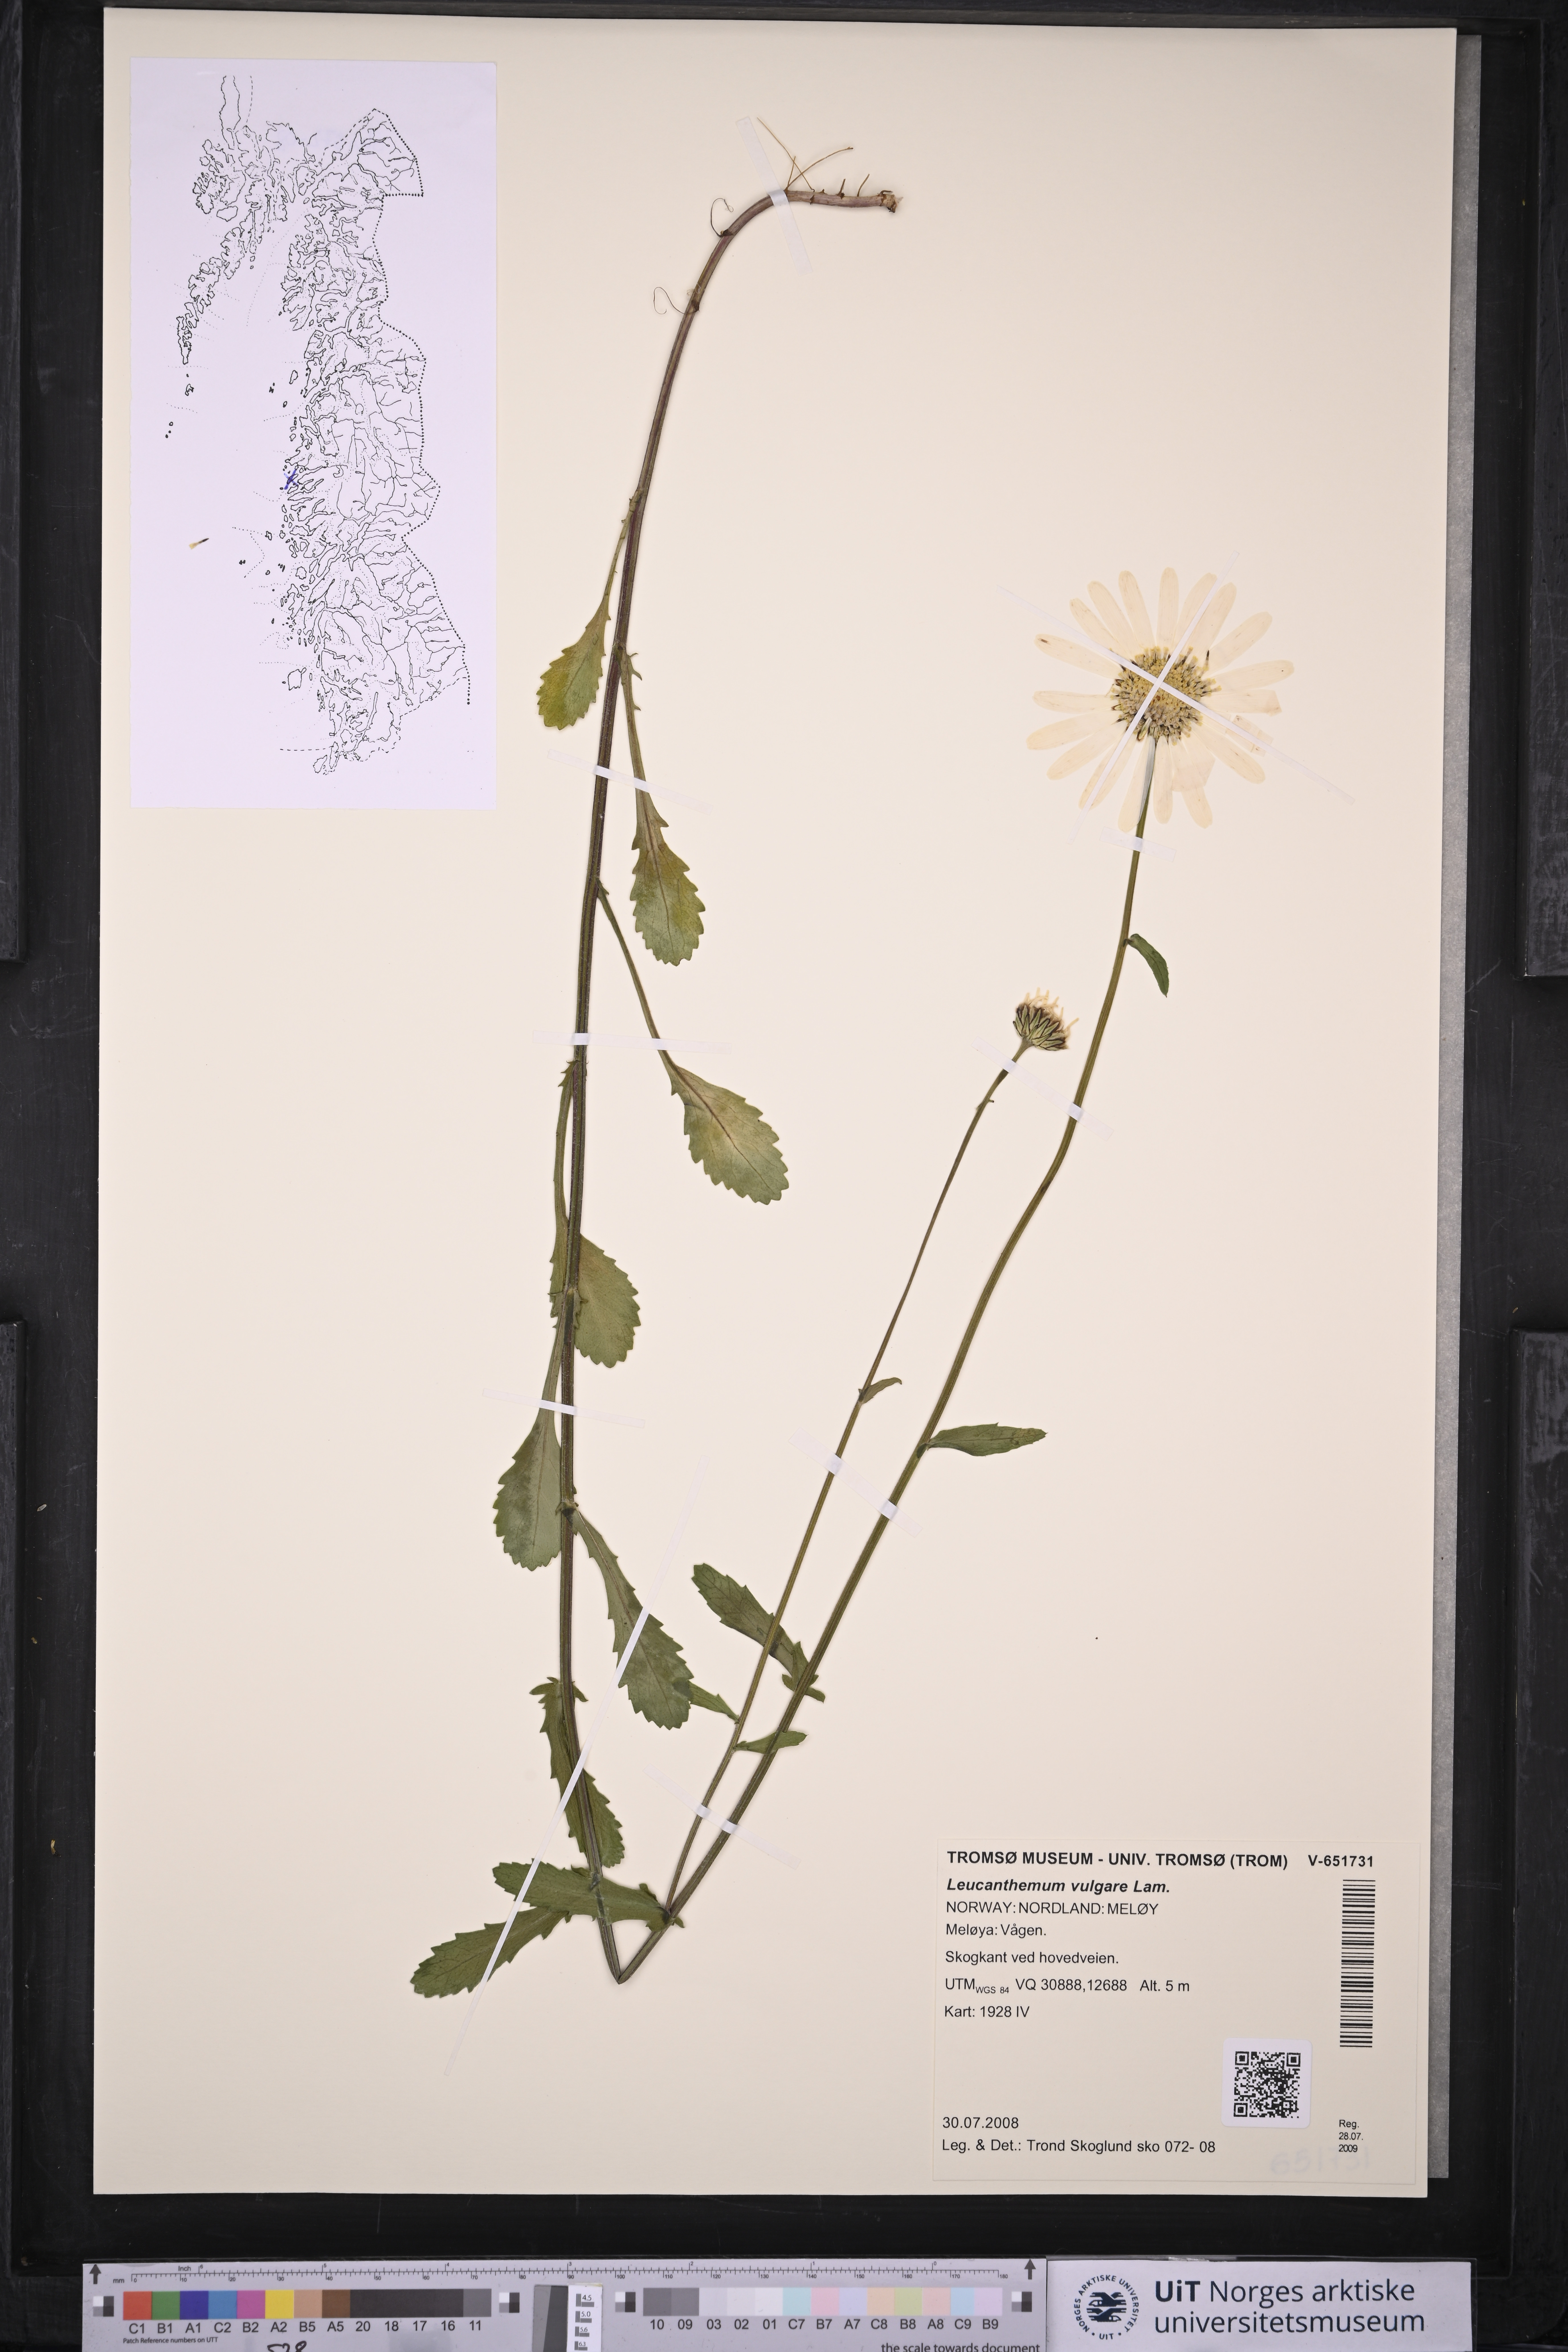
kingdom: Plantae
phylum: Tracheophyta
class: Magnoliopsida
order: Asterales
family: Asteraceae
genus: Leucanthemum
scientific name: Leucanthemum vulgare
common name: Oxeye daisy
